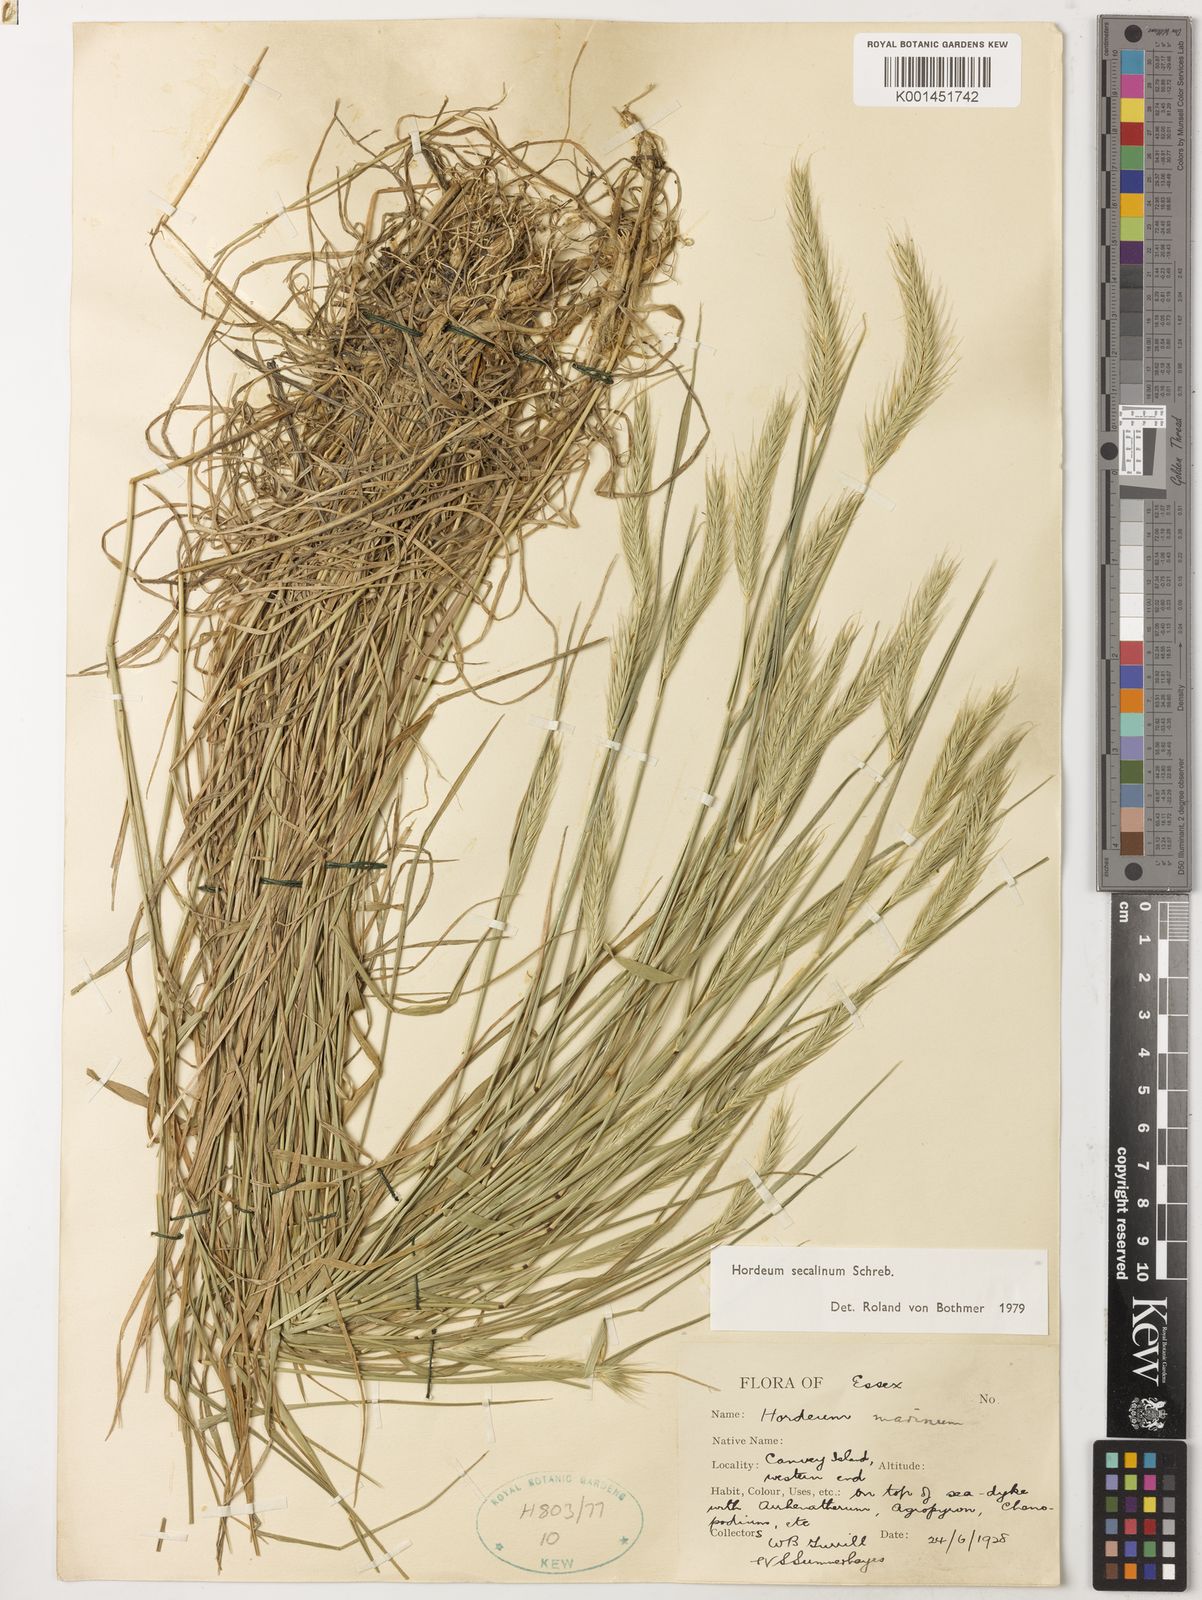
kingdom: Plantae
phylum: Tracheophyta
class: Liliopsida
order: Poales
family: Poaceae
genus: Hordeum
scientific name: Hordeum secalinum
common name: Meadow barley
